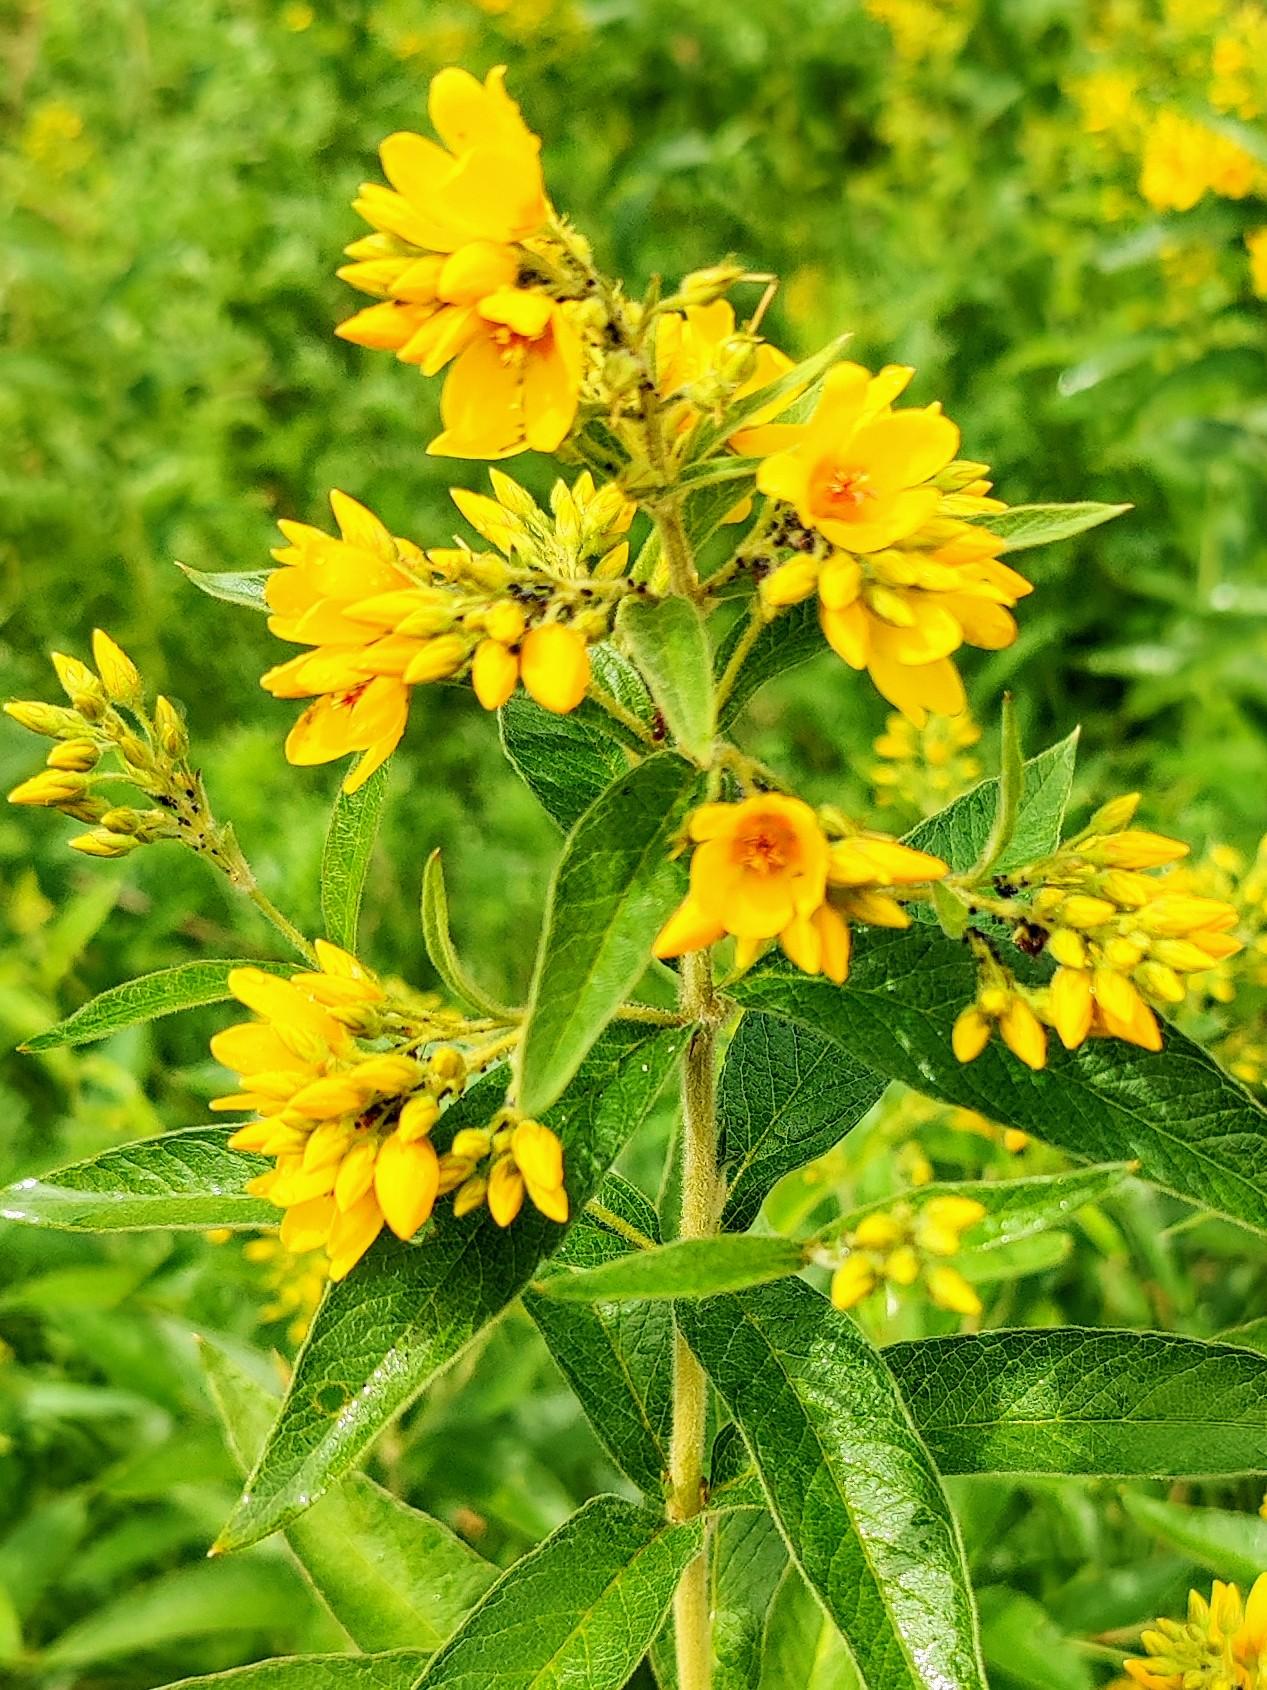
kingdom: Plantae
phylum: Tracheophyta
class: Magnoliopsida
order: Ericales
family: Primulaceae
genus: Lysimachia
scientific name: Lysimachia vulgaris
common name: Almindelig fredløs
